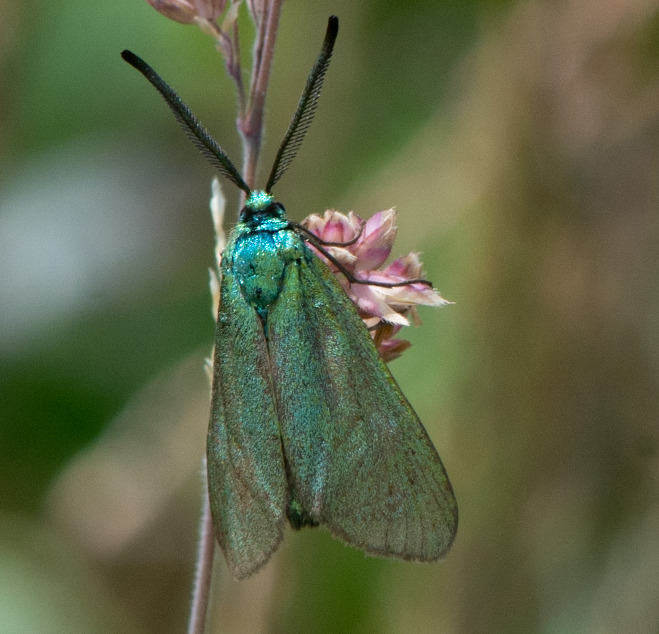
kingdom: Animalia
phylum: Arthropoda
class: Insecta
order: Lepidoptera
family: Zygaenidae
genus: Adscita
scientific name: Adscita statices
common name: Metalvinge
